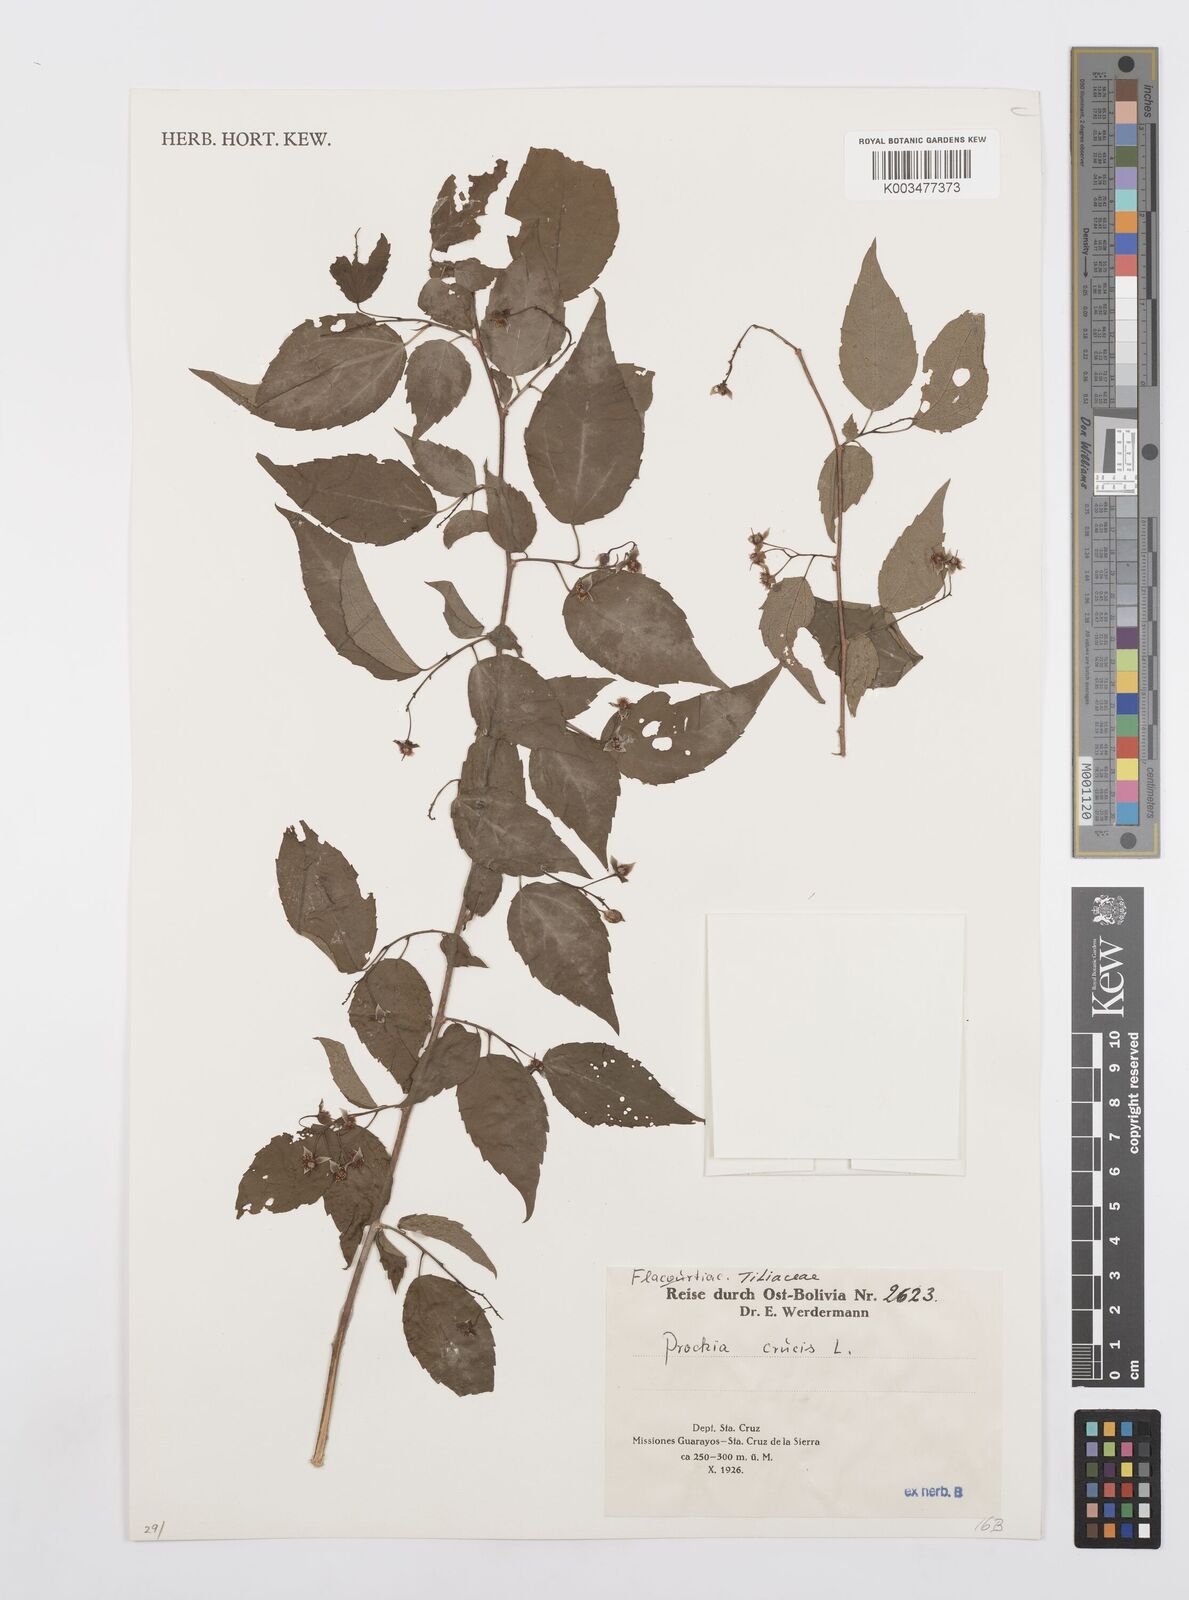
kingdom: Plantae
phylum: Tracheophyta
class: Magnoliopsida
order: Malpighiales
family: Salicaceae
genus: Prockia
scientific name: Prockia crucis
